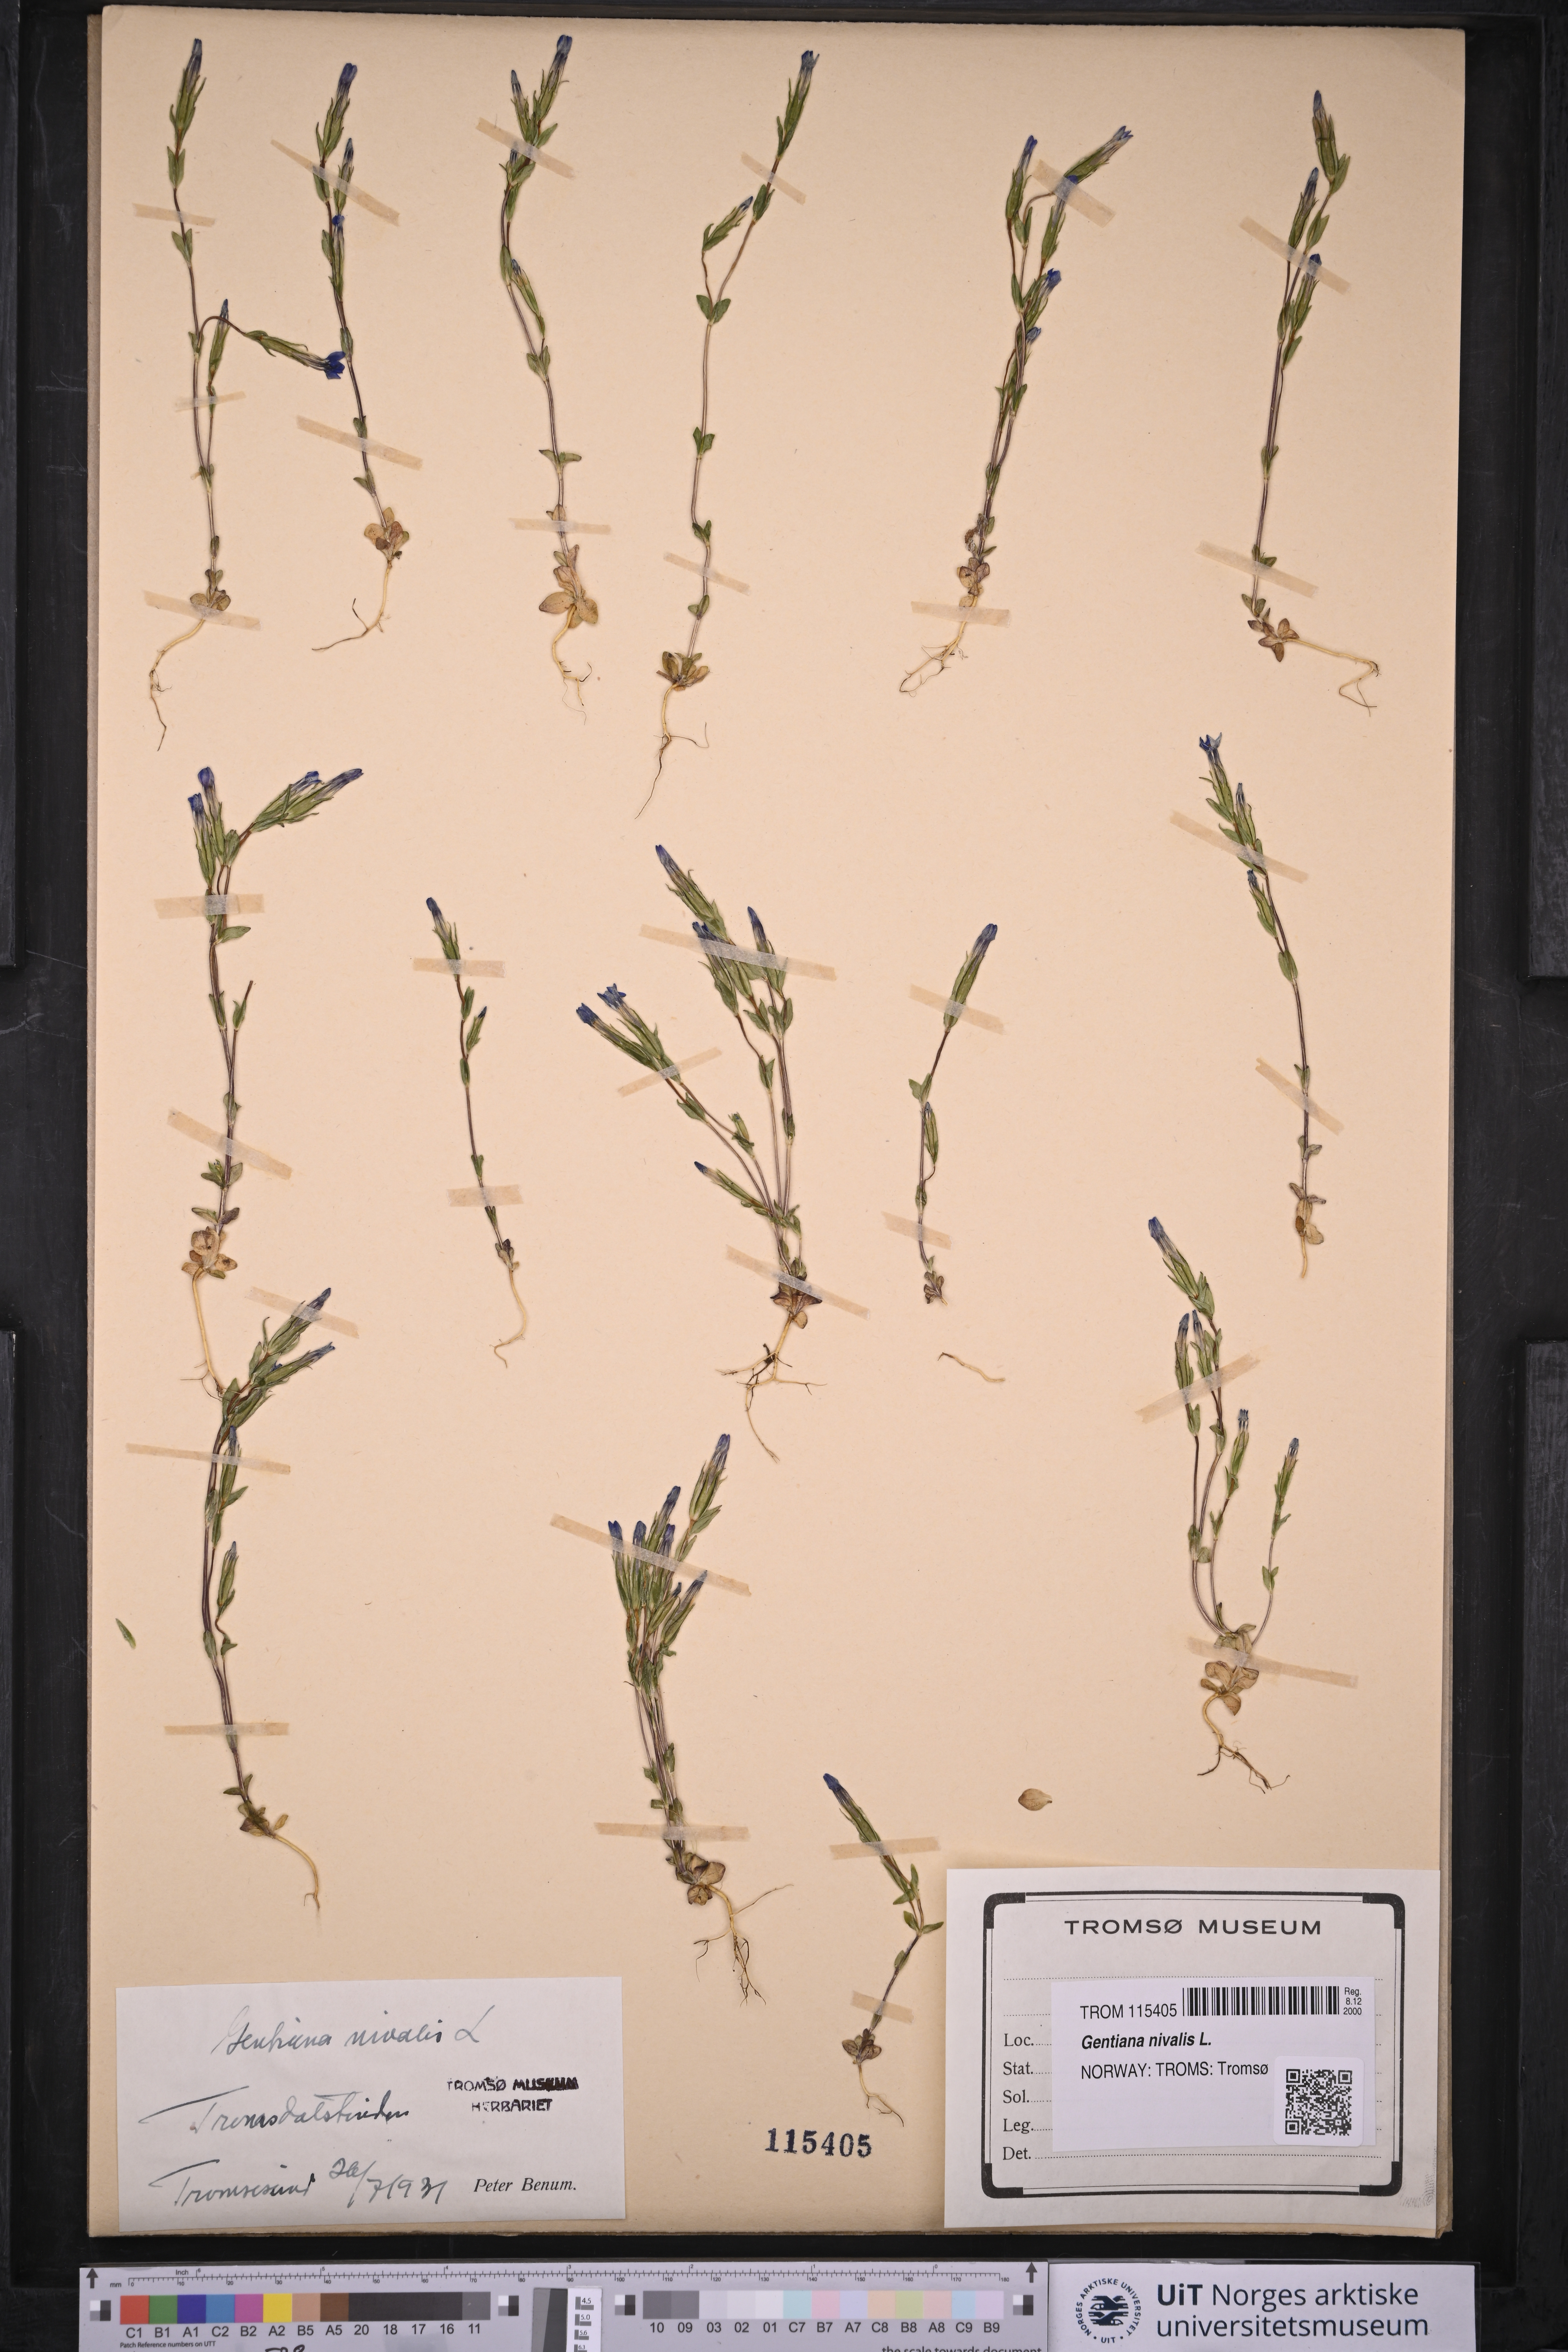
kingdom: Plantae
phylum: Tracheophyta
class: Magnoliopsida
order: Gentianales
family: Gentianaceae
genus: Gentiana
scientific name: Gentiana nivalis
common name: Alpine gentian
